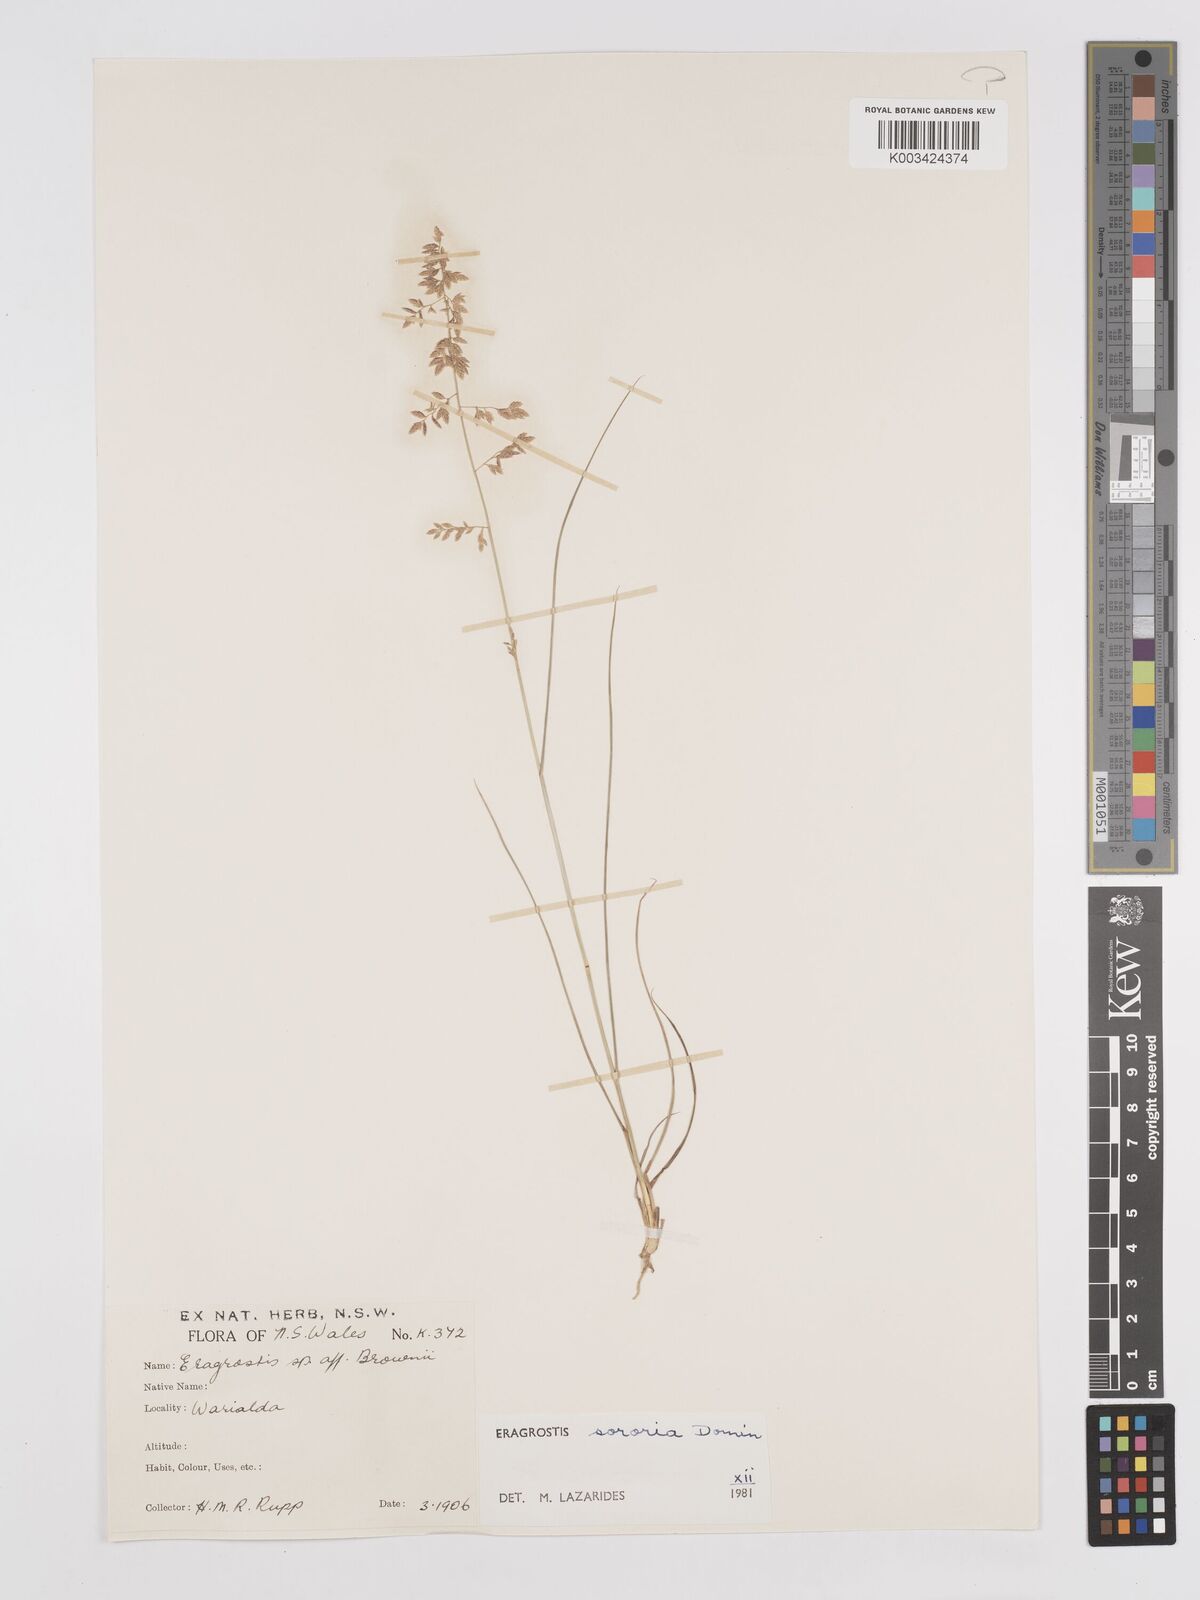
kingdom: Plantae
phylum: Tracheophyta
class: Liliopsida
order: Poales
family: Poaceae
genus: Eragrostis
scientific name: Eragrostis sororia
